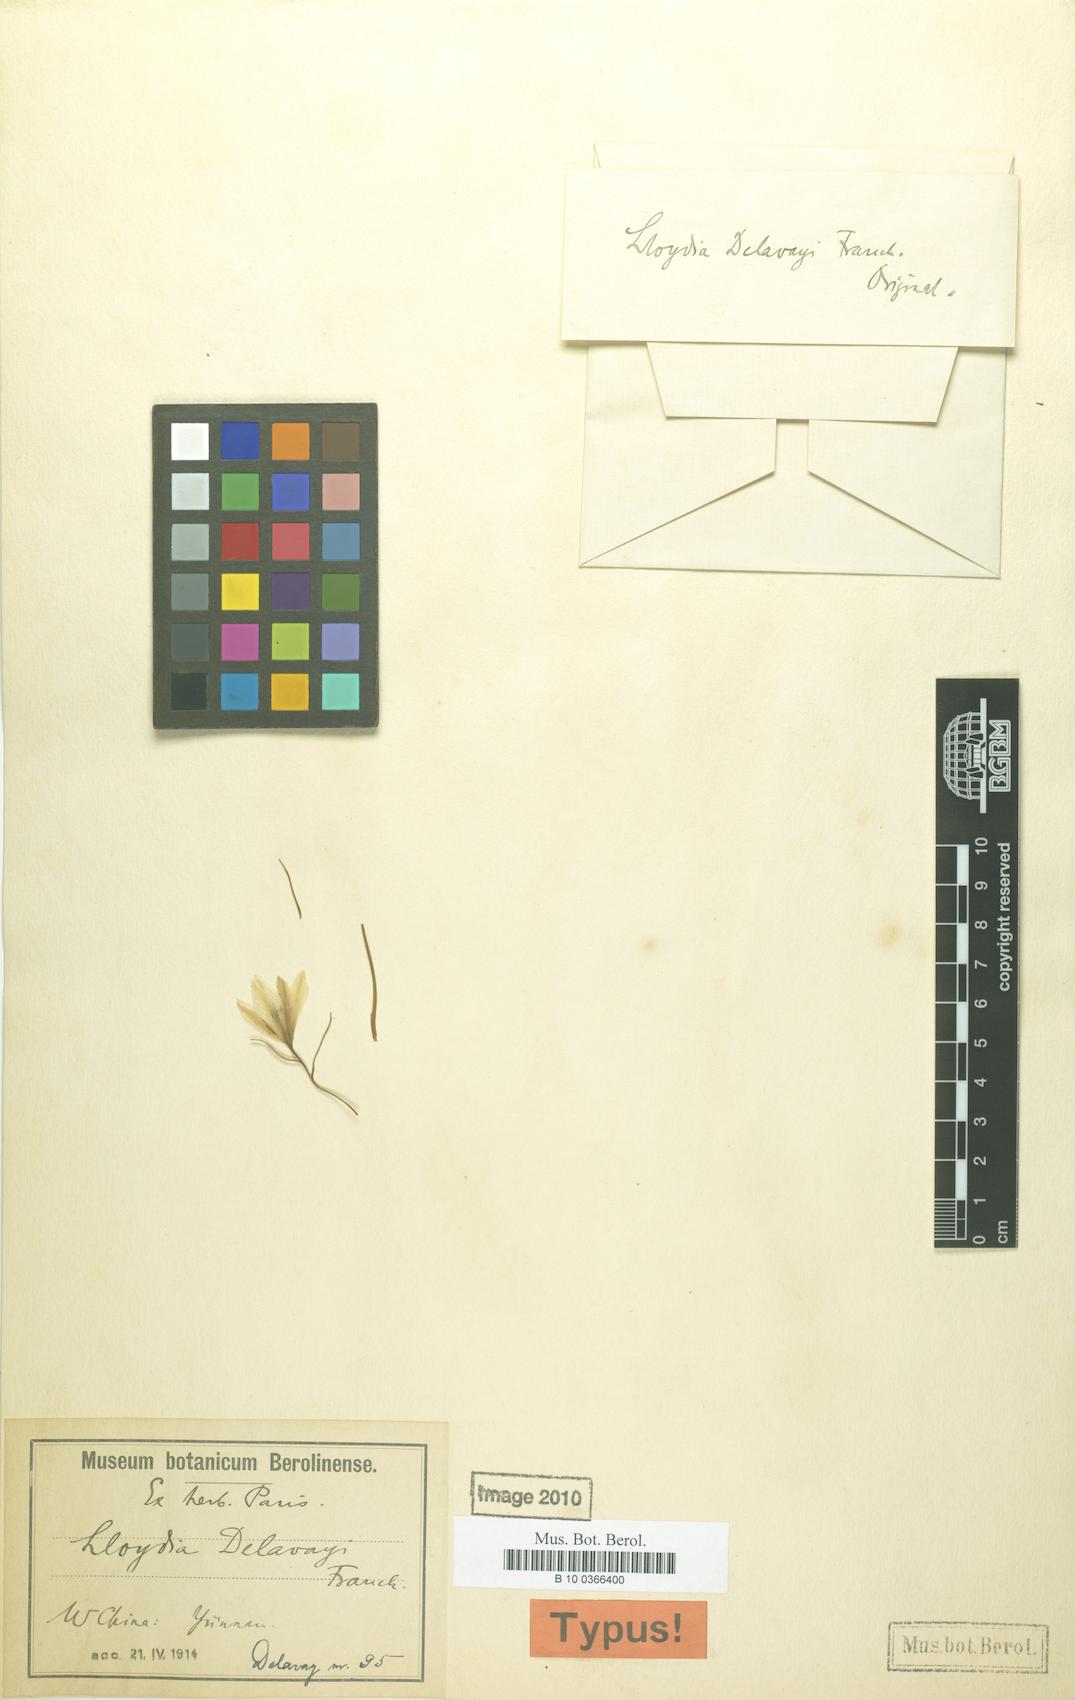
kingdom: Plantae
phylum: Tracheophyta
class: Liliopsida
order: Liliales
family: Liliaceae
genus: Gagea
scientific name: Gagea delavayi
